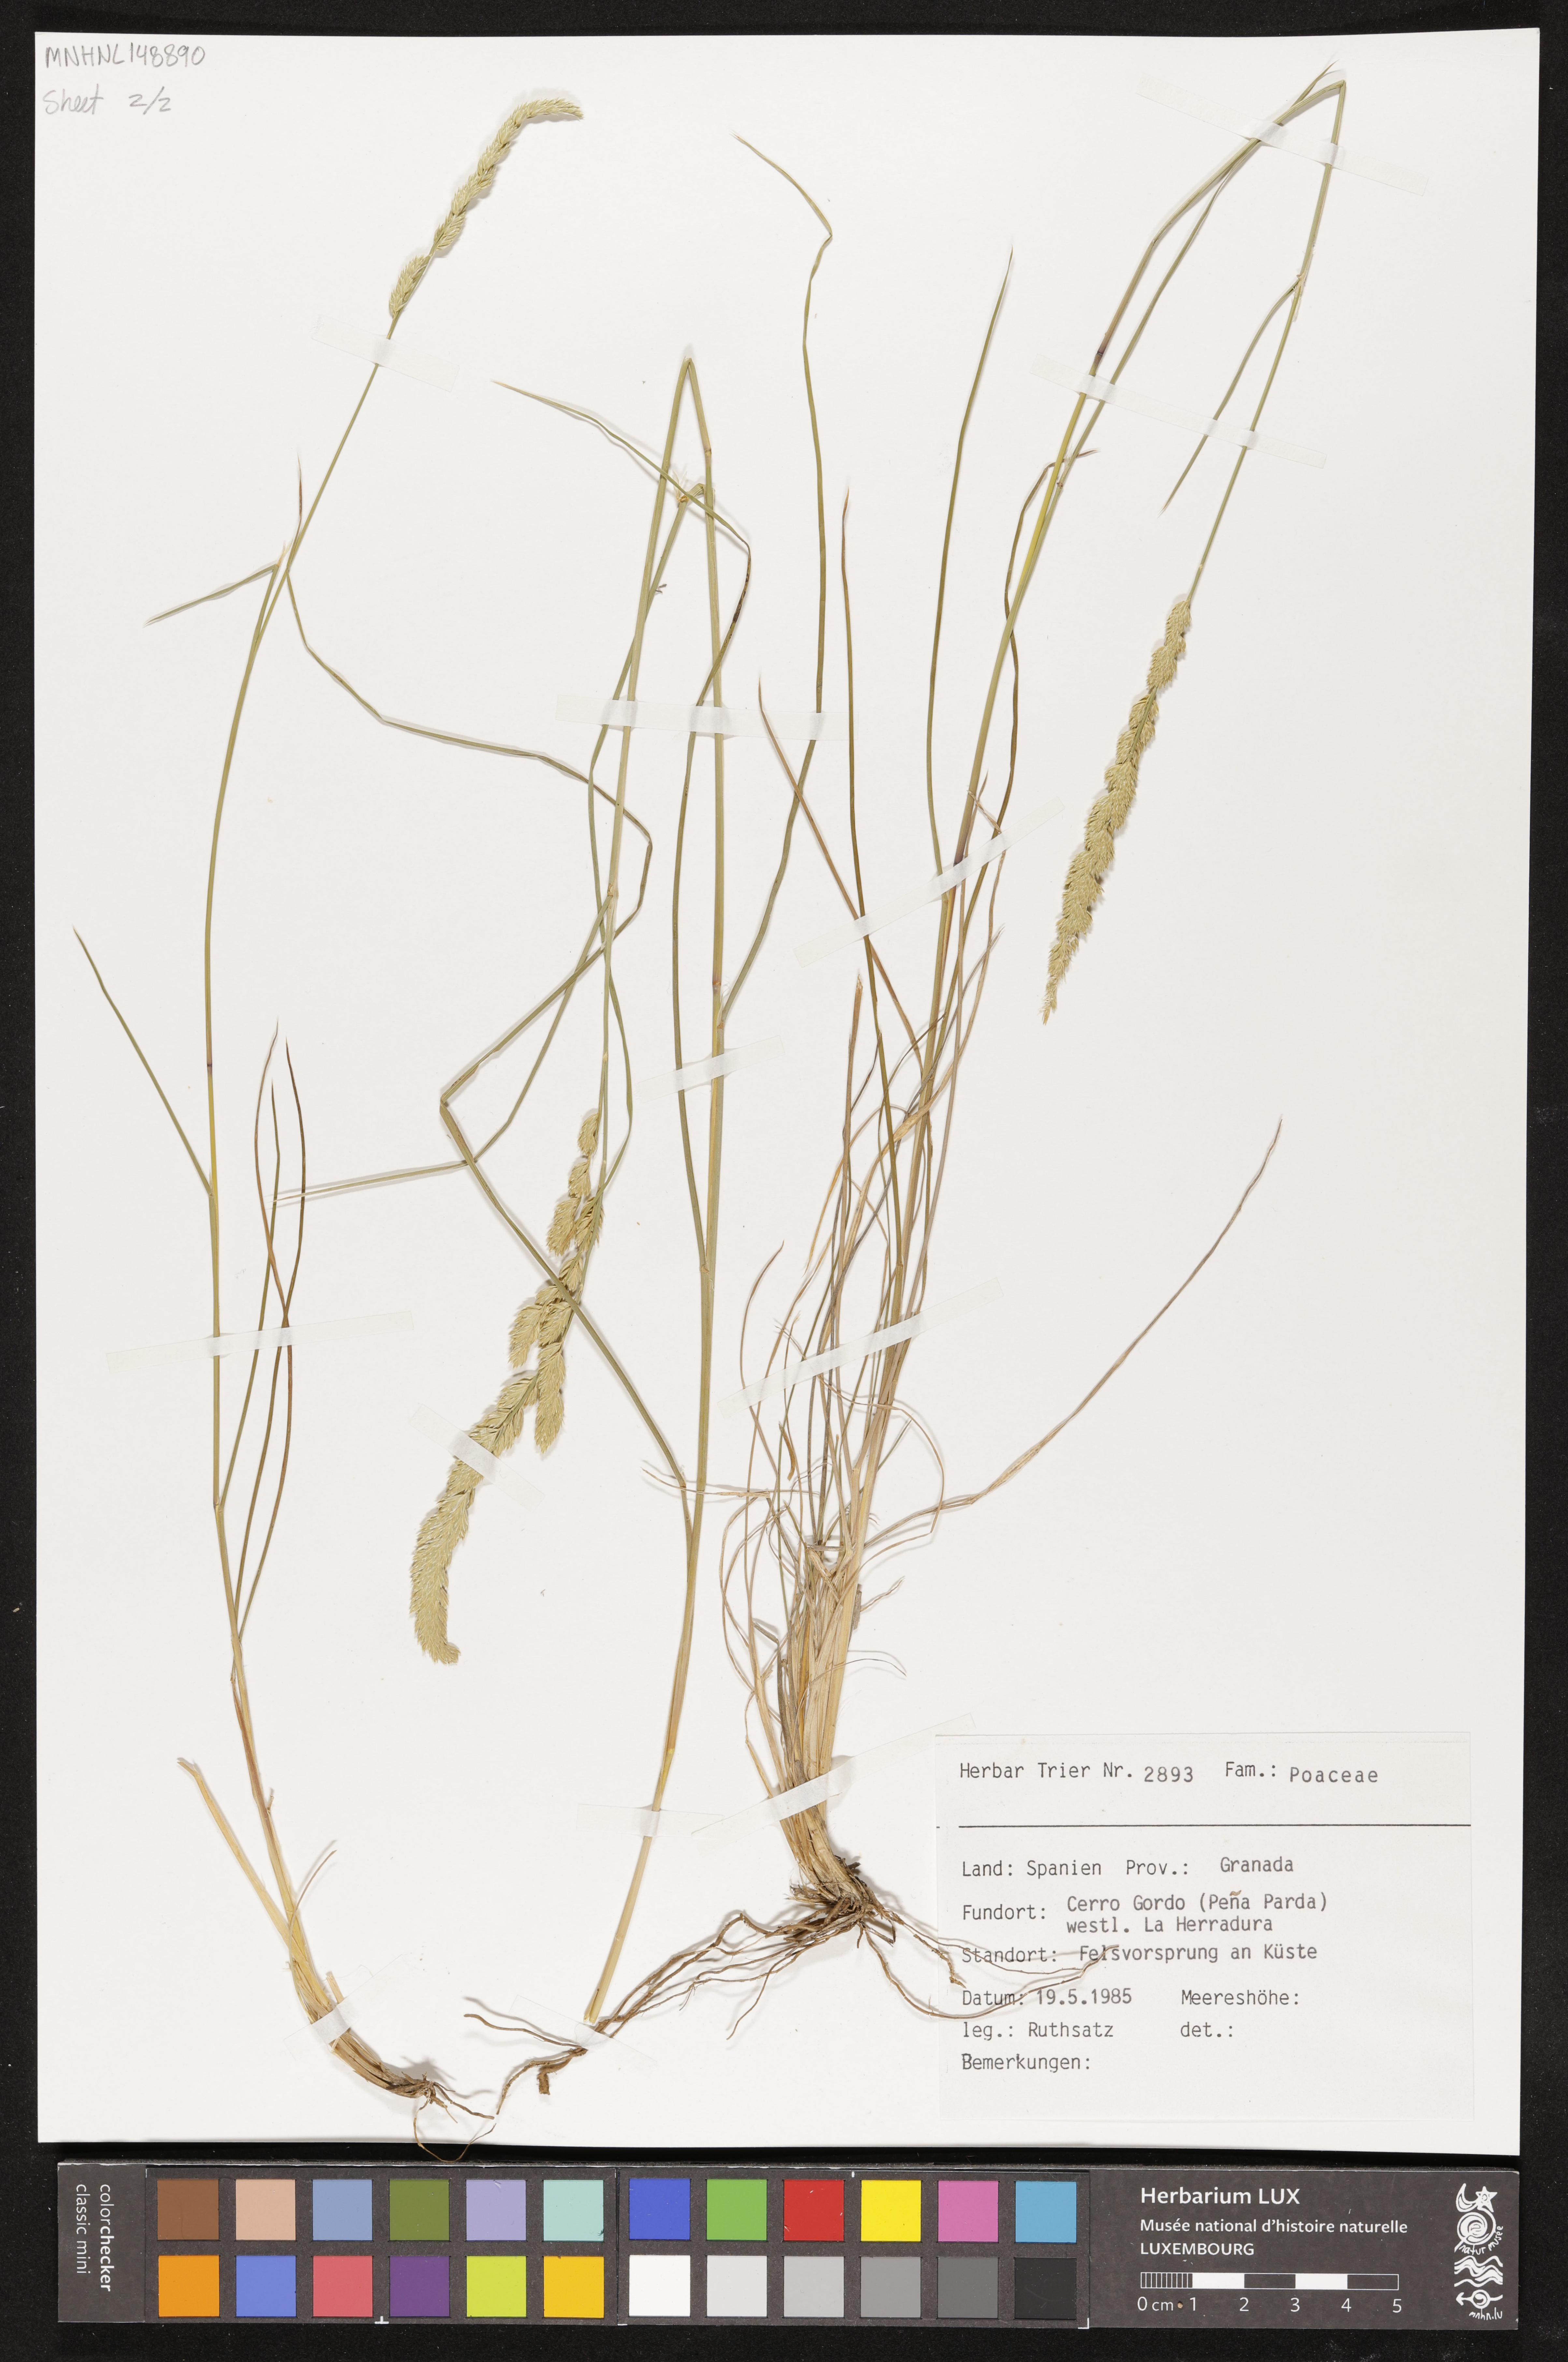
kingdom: Plantae
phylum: Tracheophyta
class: Liliopsida
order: Poales
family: Poaceae
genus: Dactylis
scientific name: Dactylis glomerata
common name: Orchardgrass
